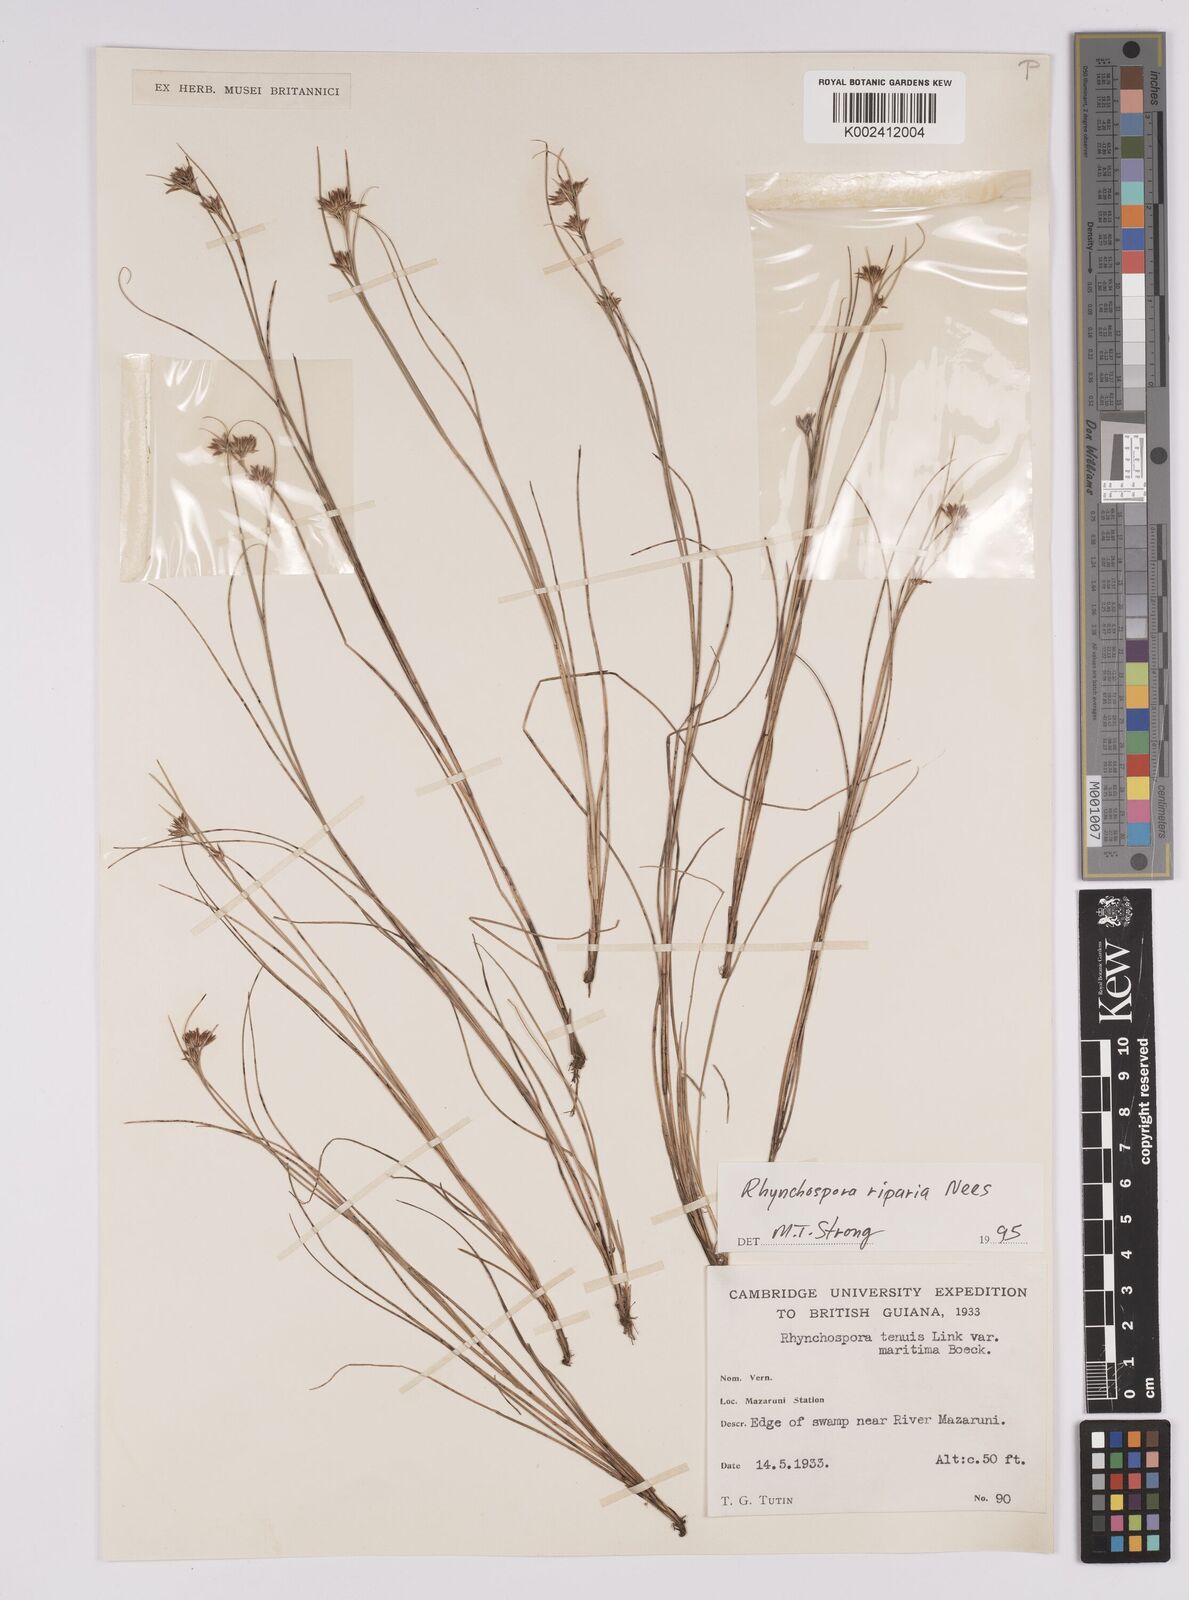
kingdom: Plantae
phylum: Tracheophyta
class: Liliopsida
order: Poales
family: Cyperaceae
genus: Rhynchospora
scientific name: Rhynchospora riparia
